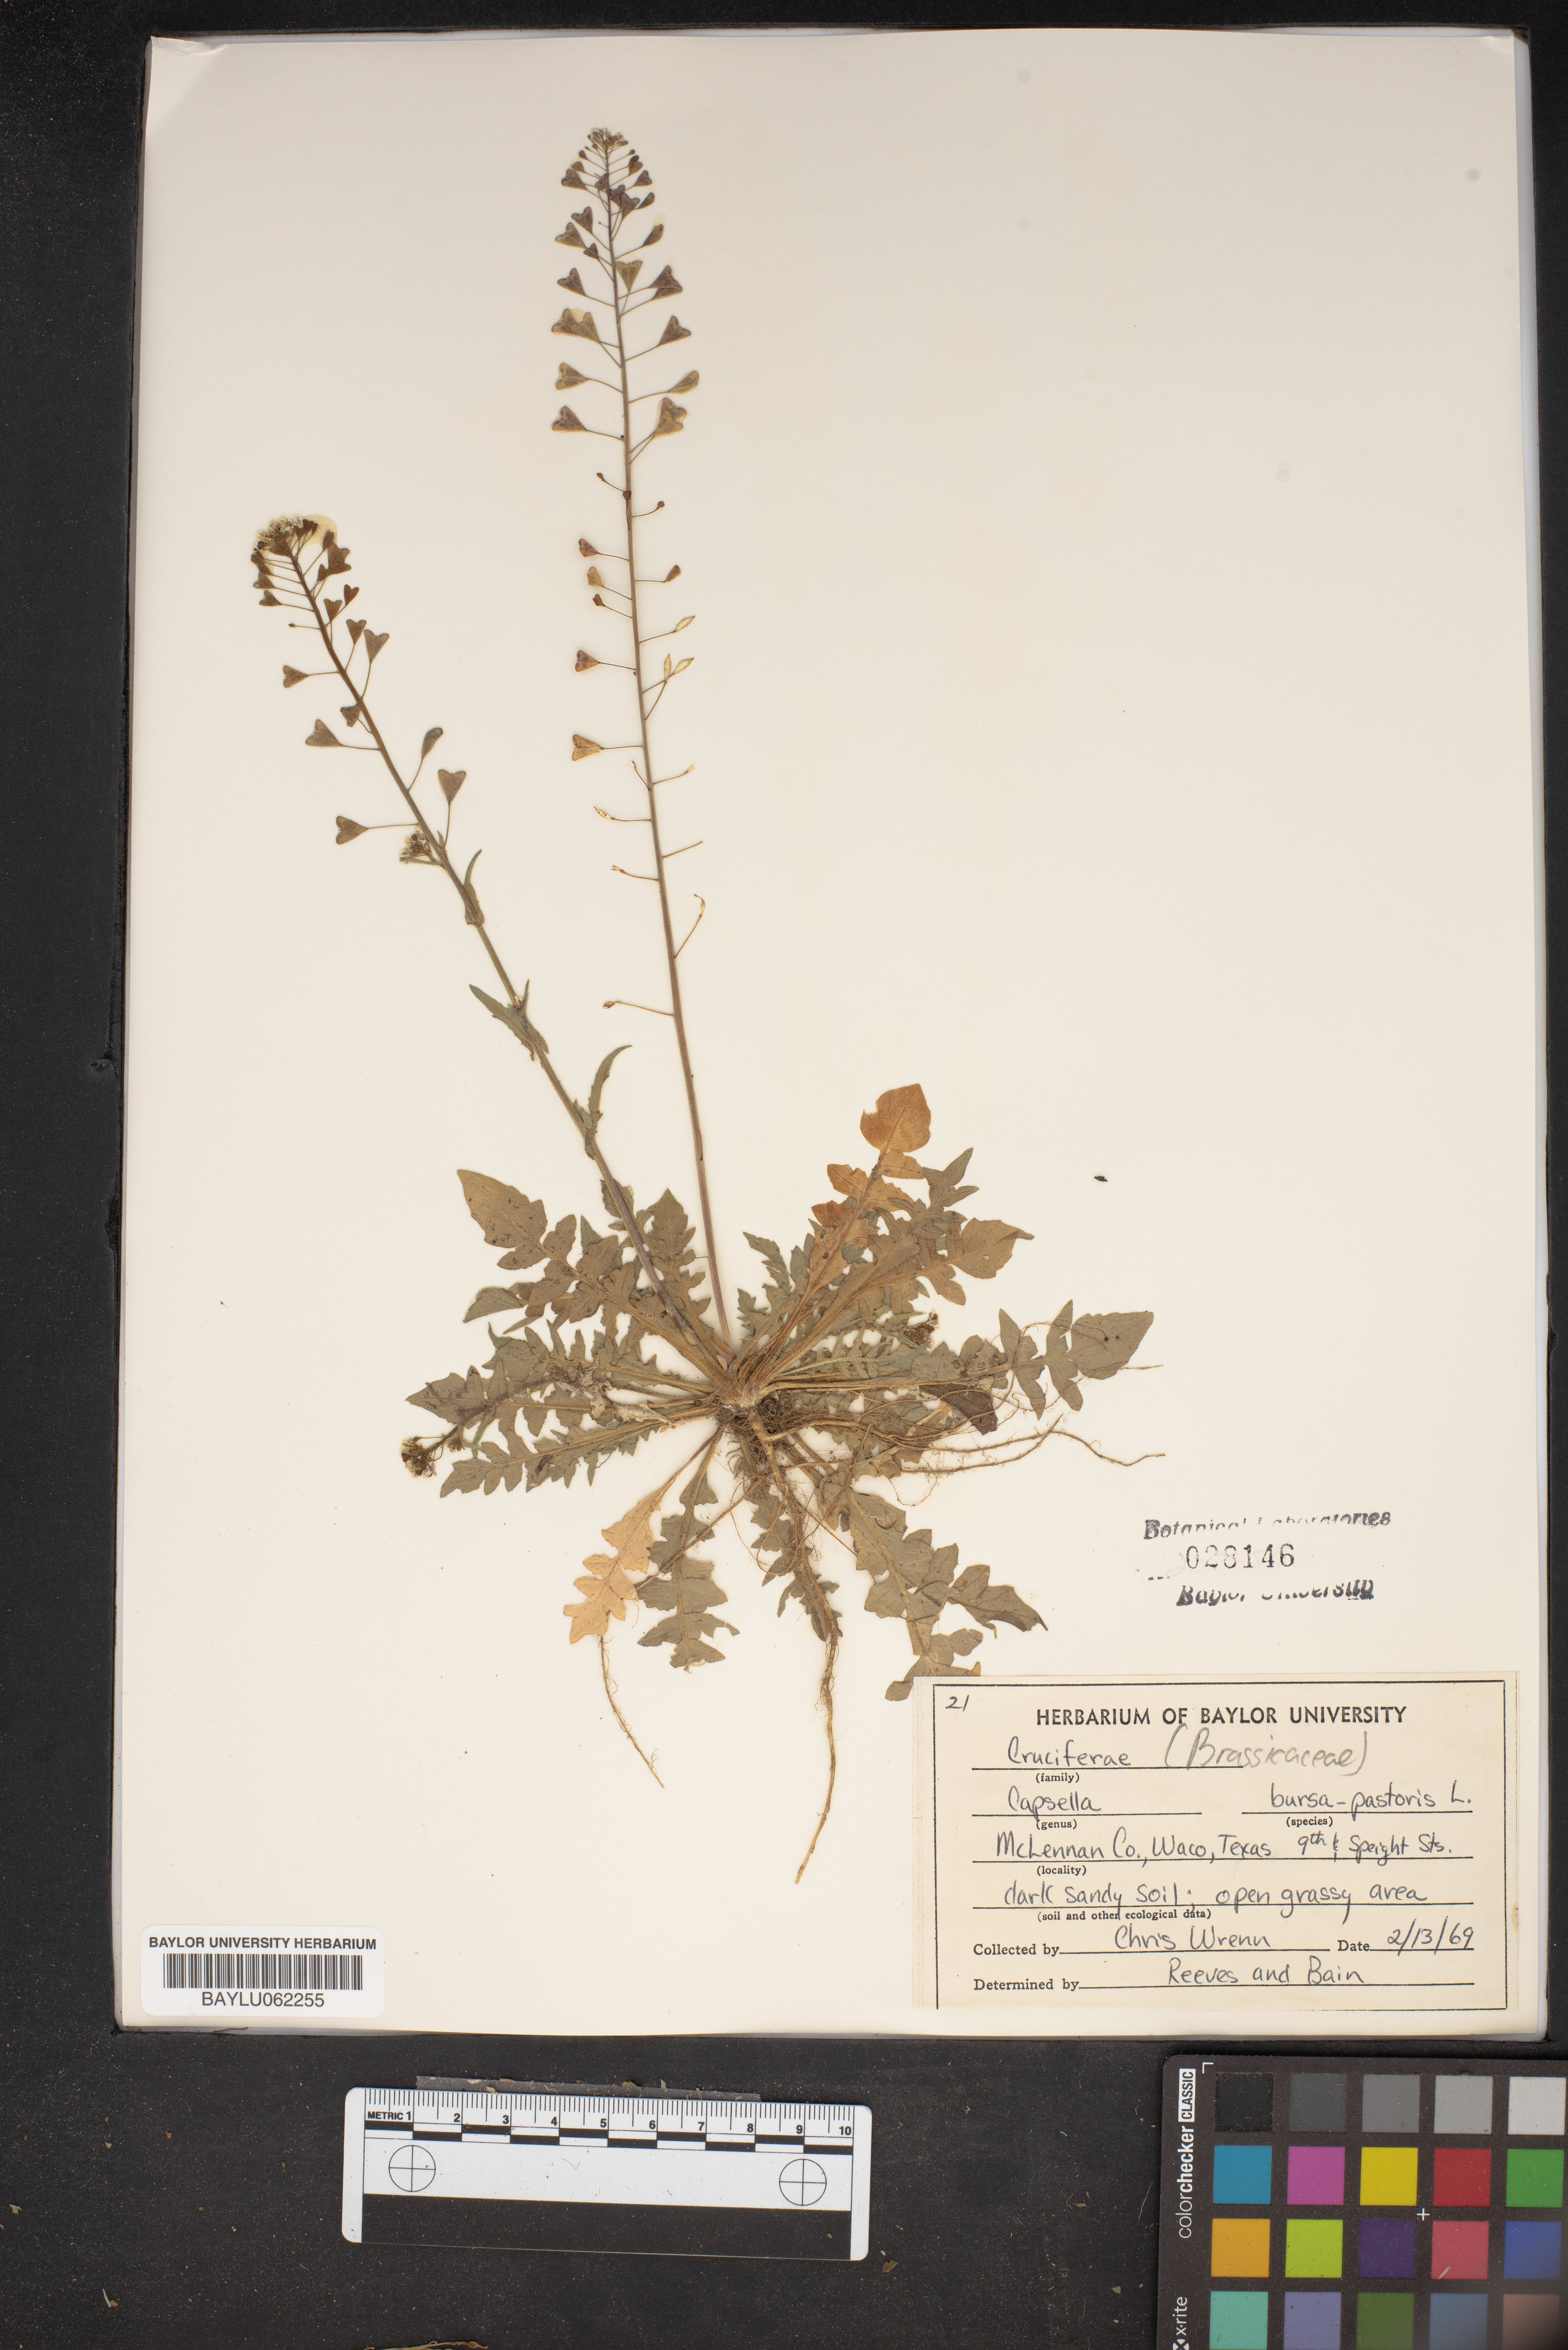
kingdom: Plantae
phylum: Tracheophyta
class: Magnoliopsida
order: Brassicales
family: Brassicaceae
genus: Capsella
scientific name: Capsella bursa-pastoris
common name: Shepherd's purse
